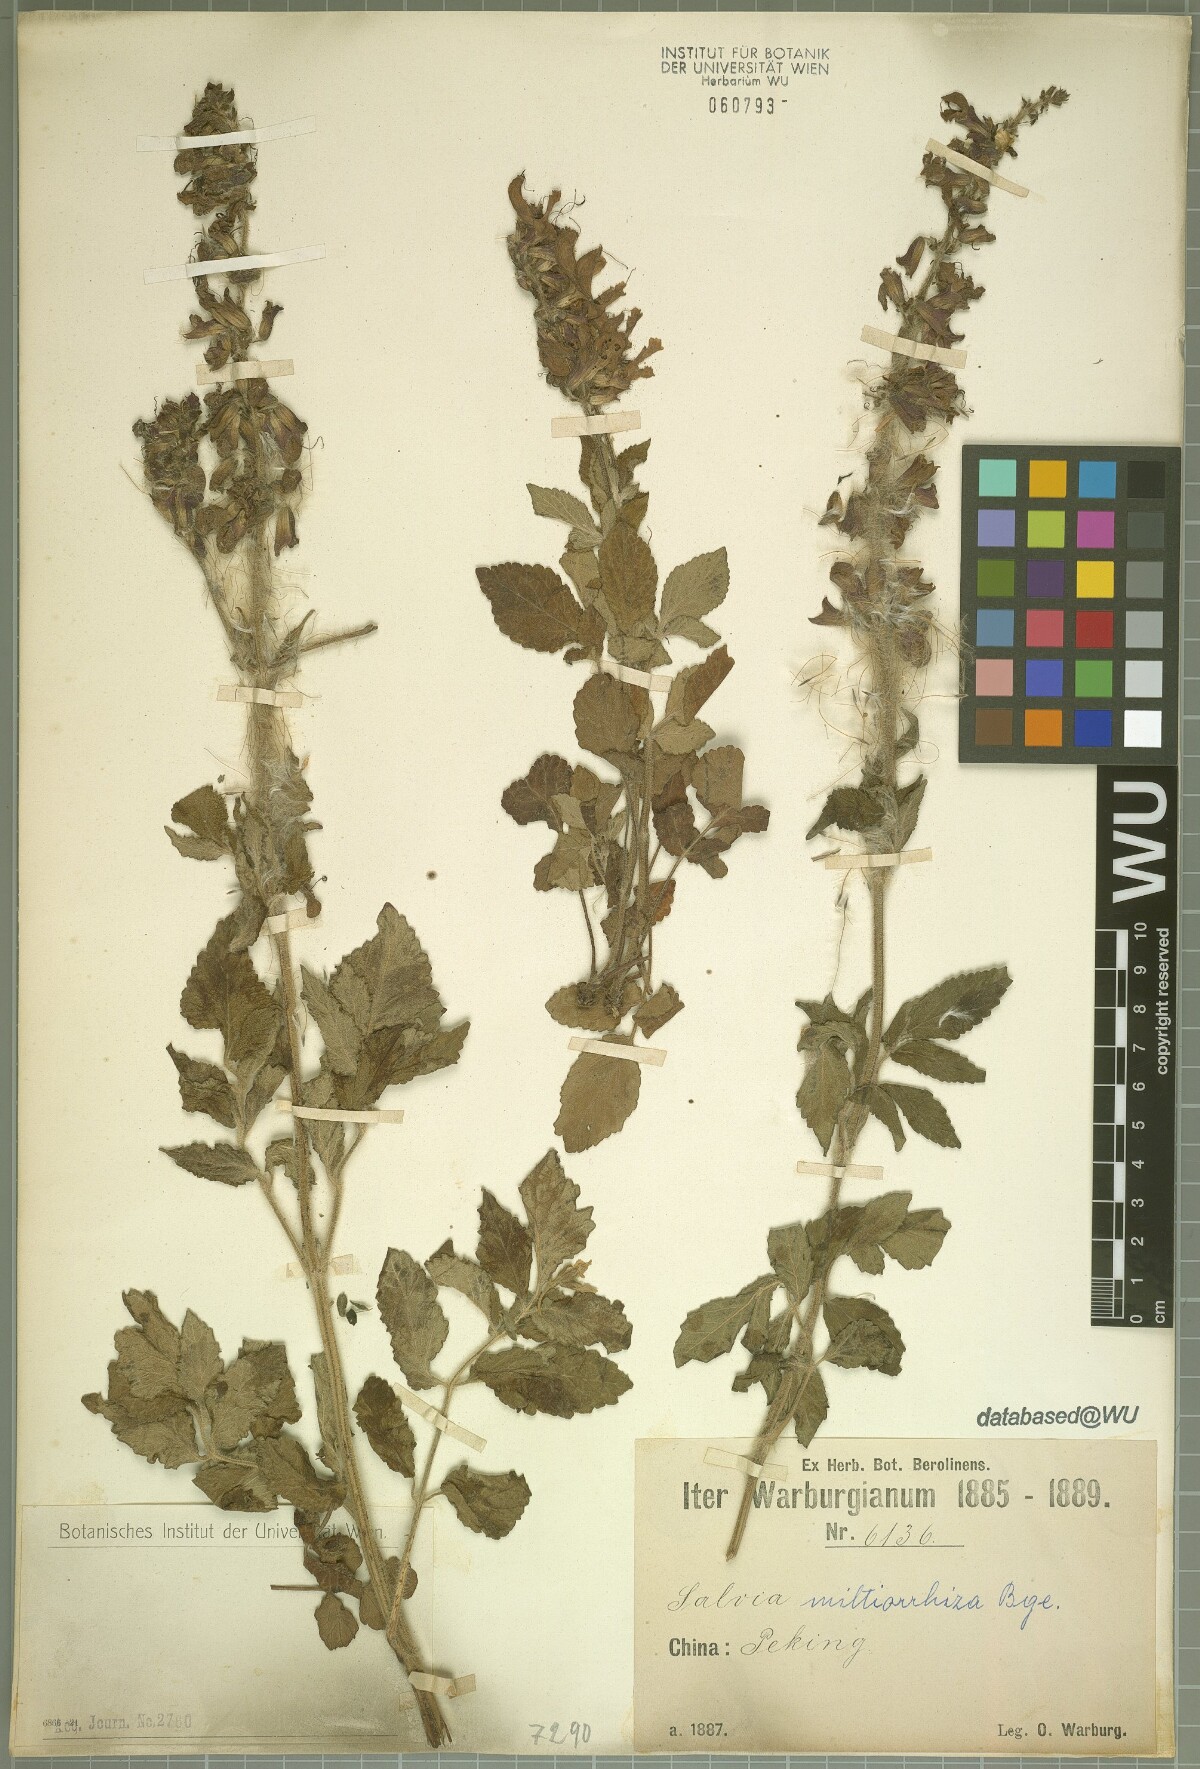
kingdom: Plantae
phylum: Tracheophyta
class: Magnoliopsida
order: Lamiales
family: Lamiaceae
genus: Salvia
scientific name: Salvia miltiorrhiza
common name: Redroot sage
